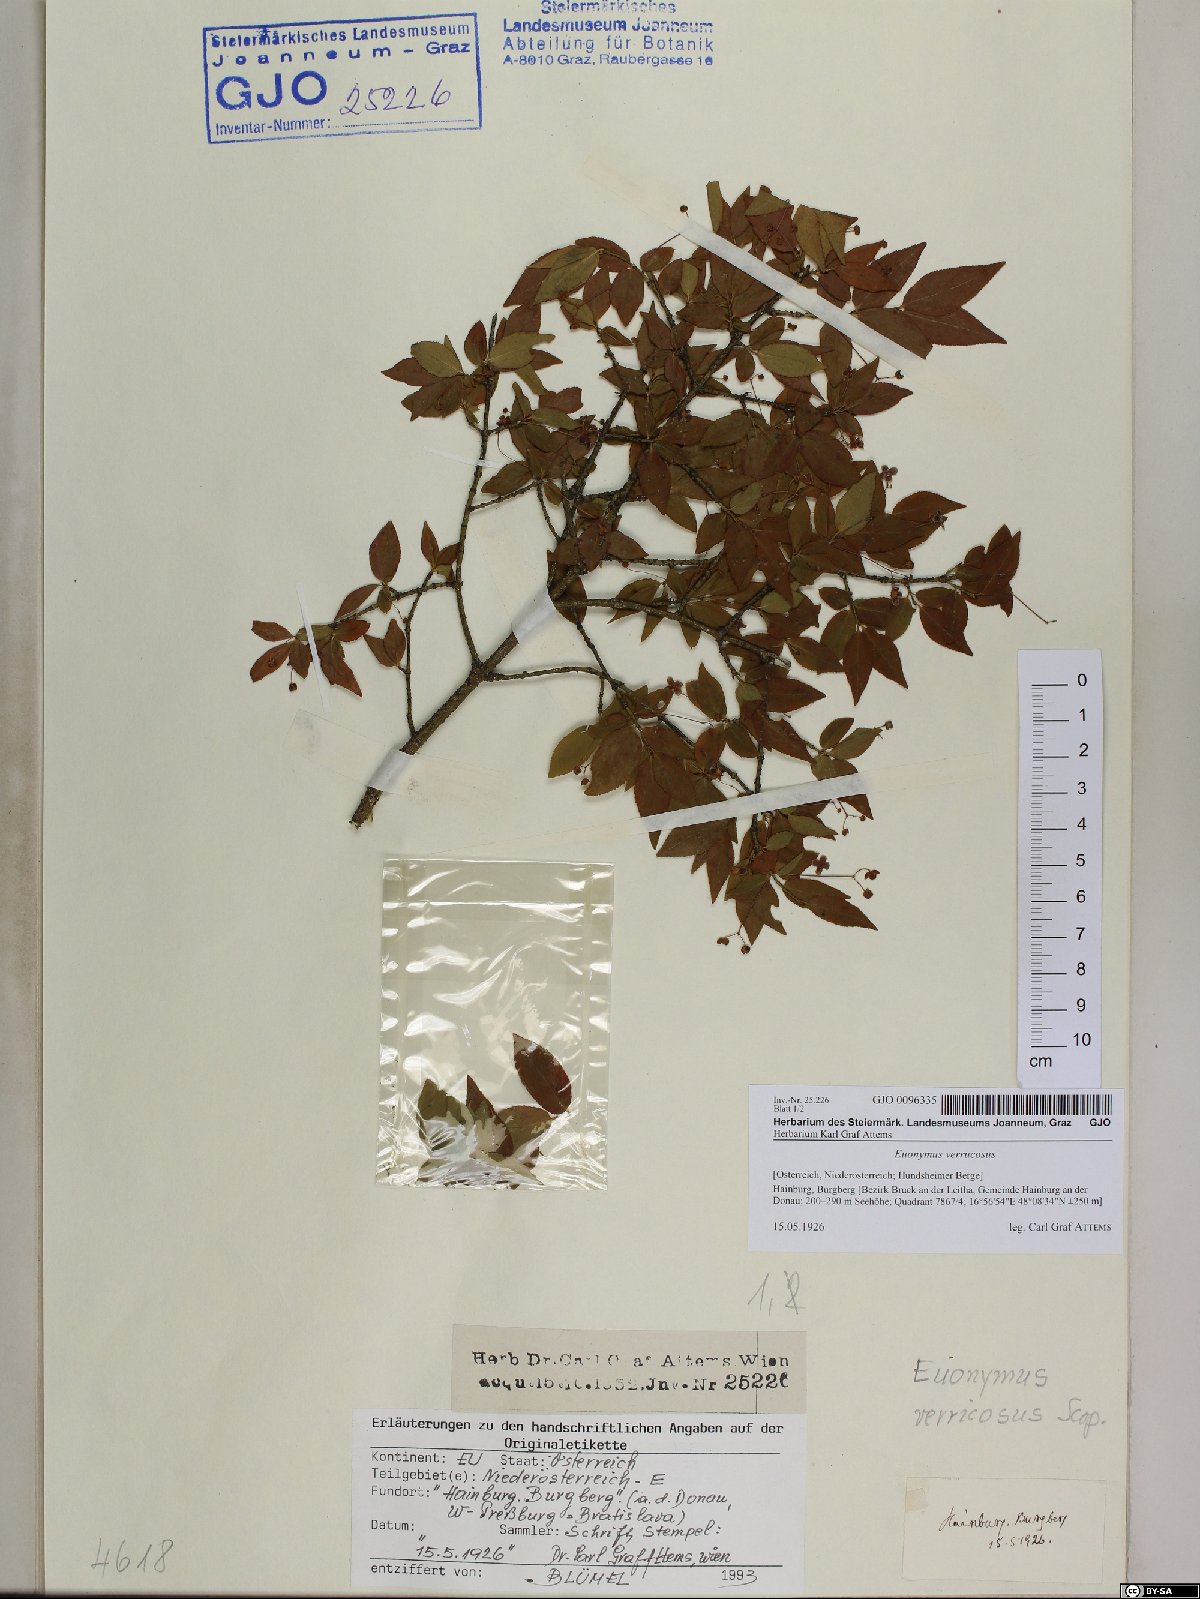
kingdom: Plantae
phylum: Tracheophyta
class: Magnoliopsida
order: Celastrales
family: Celastraceae
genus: Euonymus
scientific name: Euonymus verrucosus
